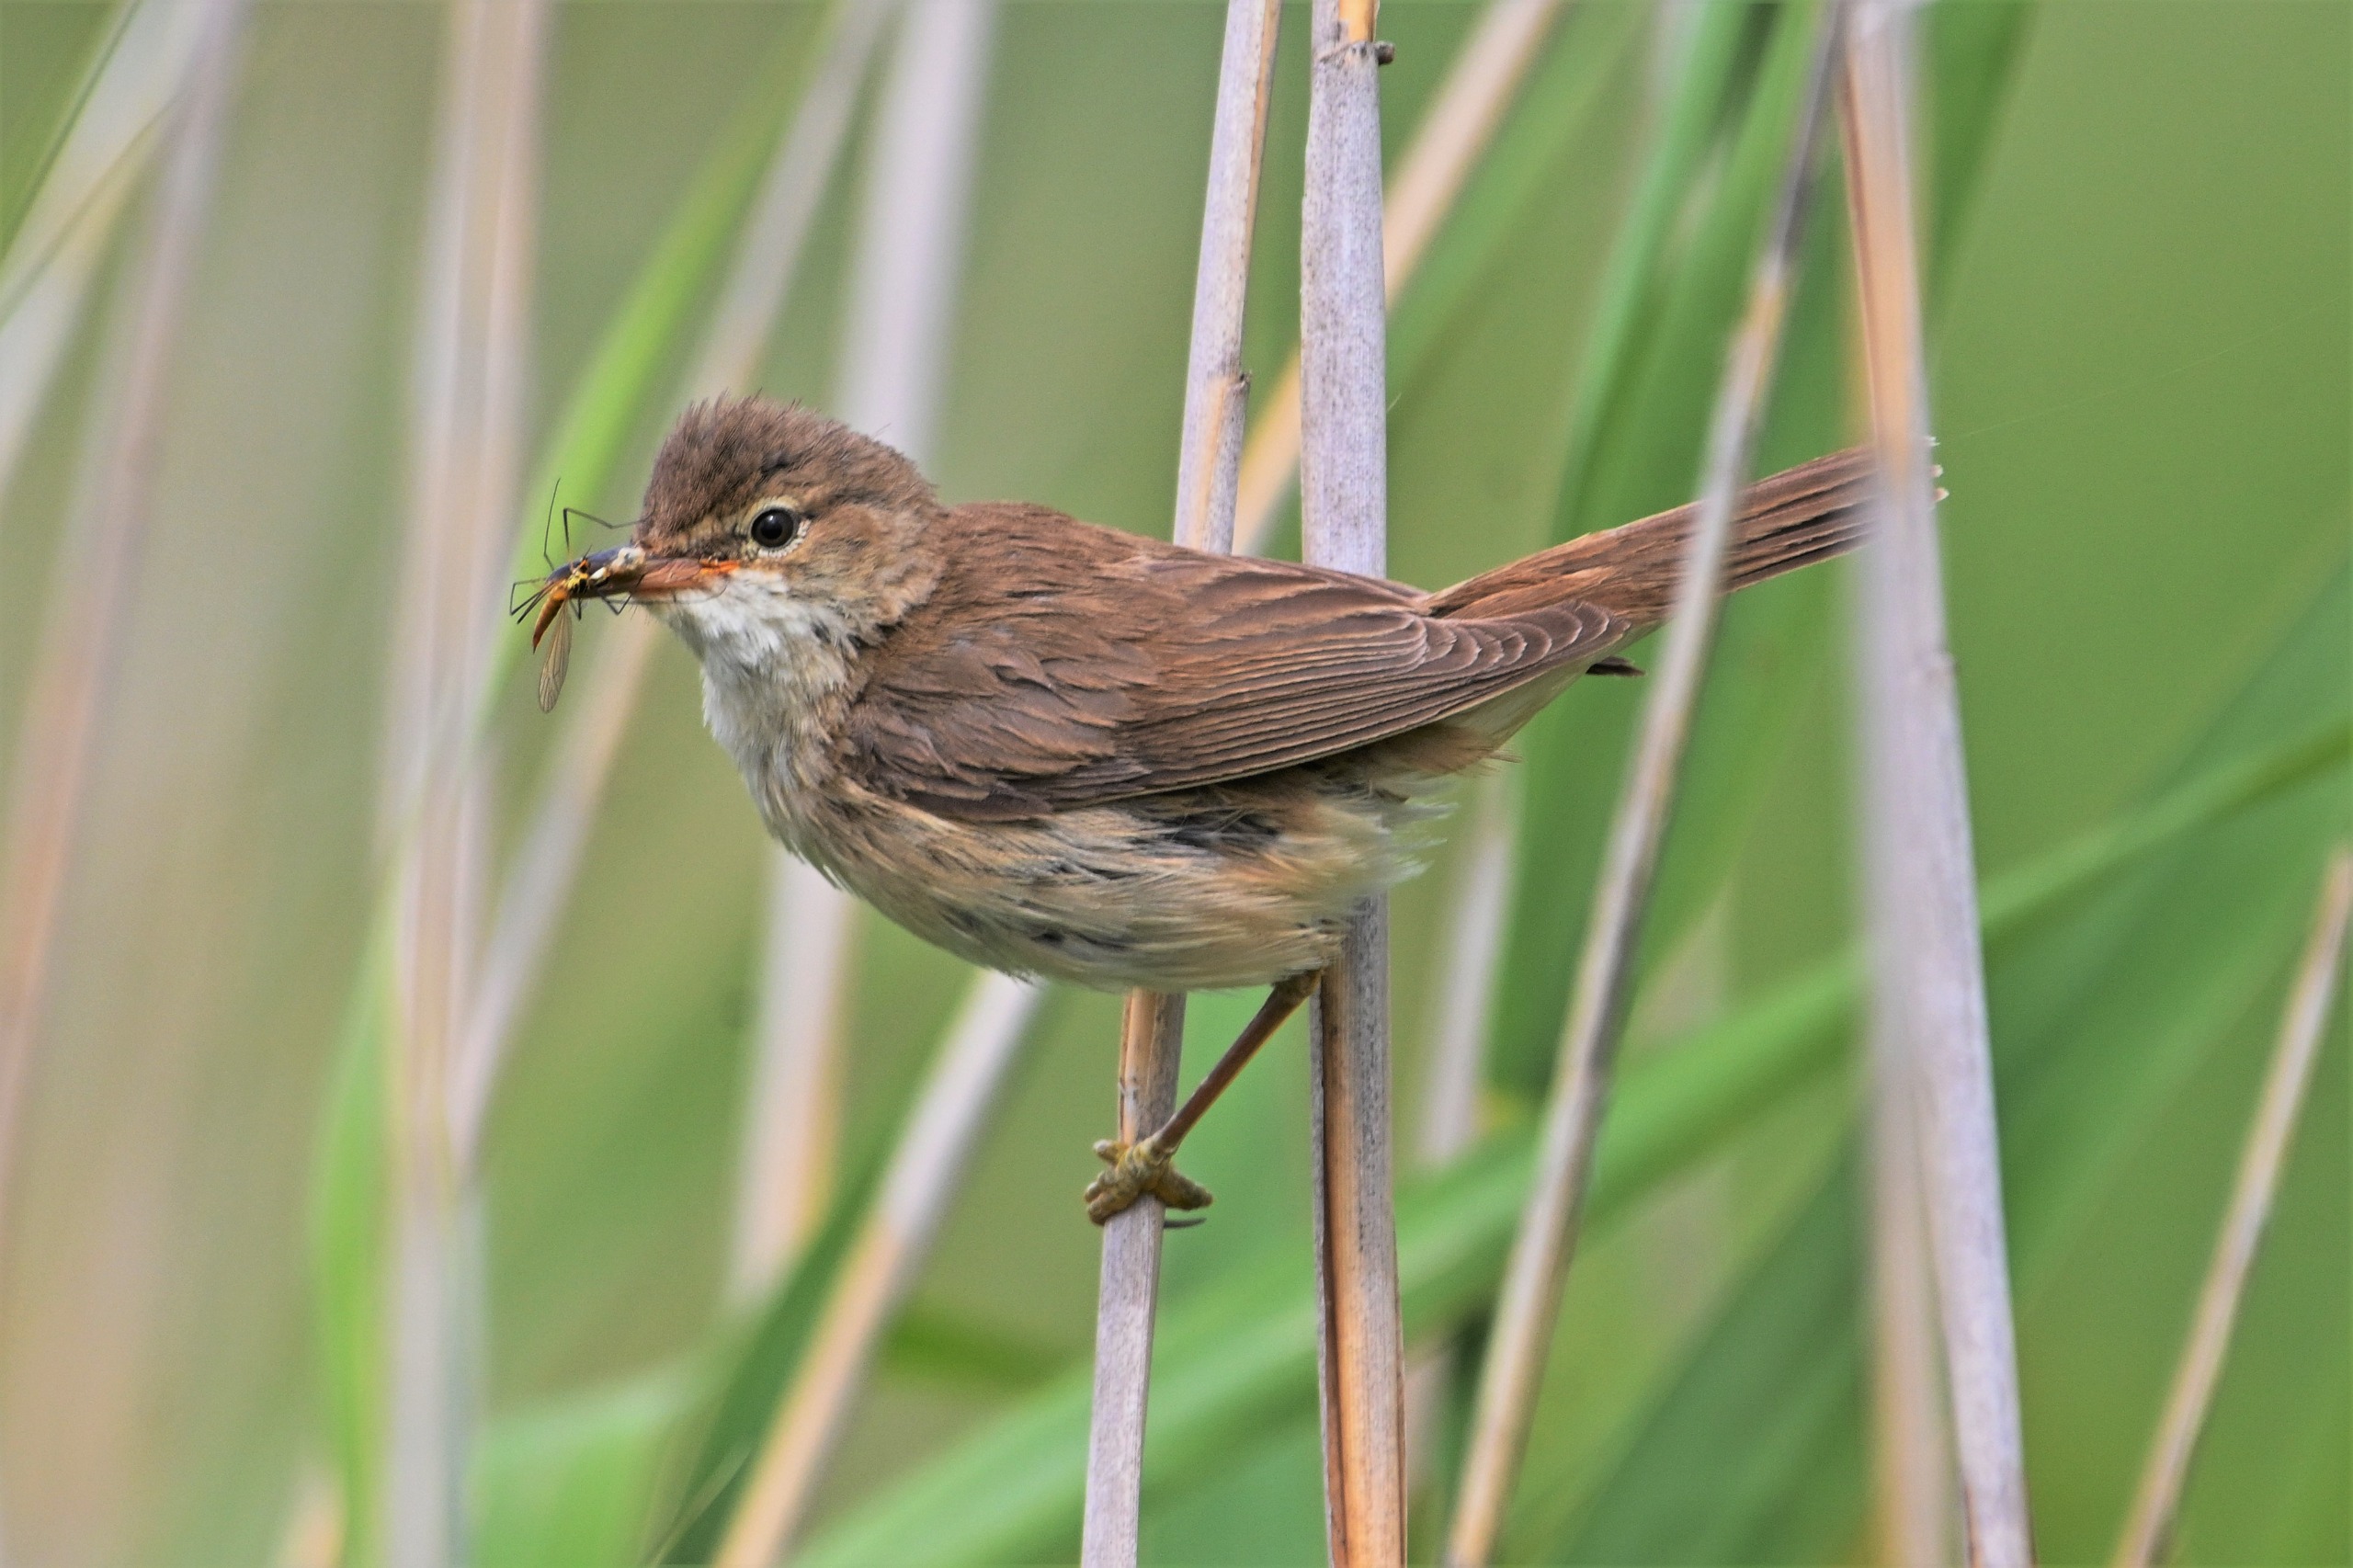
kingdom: Animalia
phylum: Chordata
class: Aves
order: Passeriformes
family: Acrocephalidae
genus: Acrocephalus
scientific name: Acrocephalus scirpaceus
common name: Rørsanger
